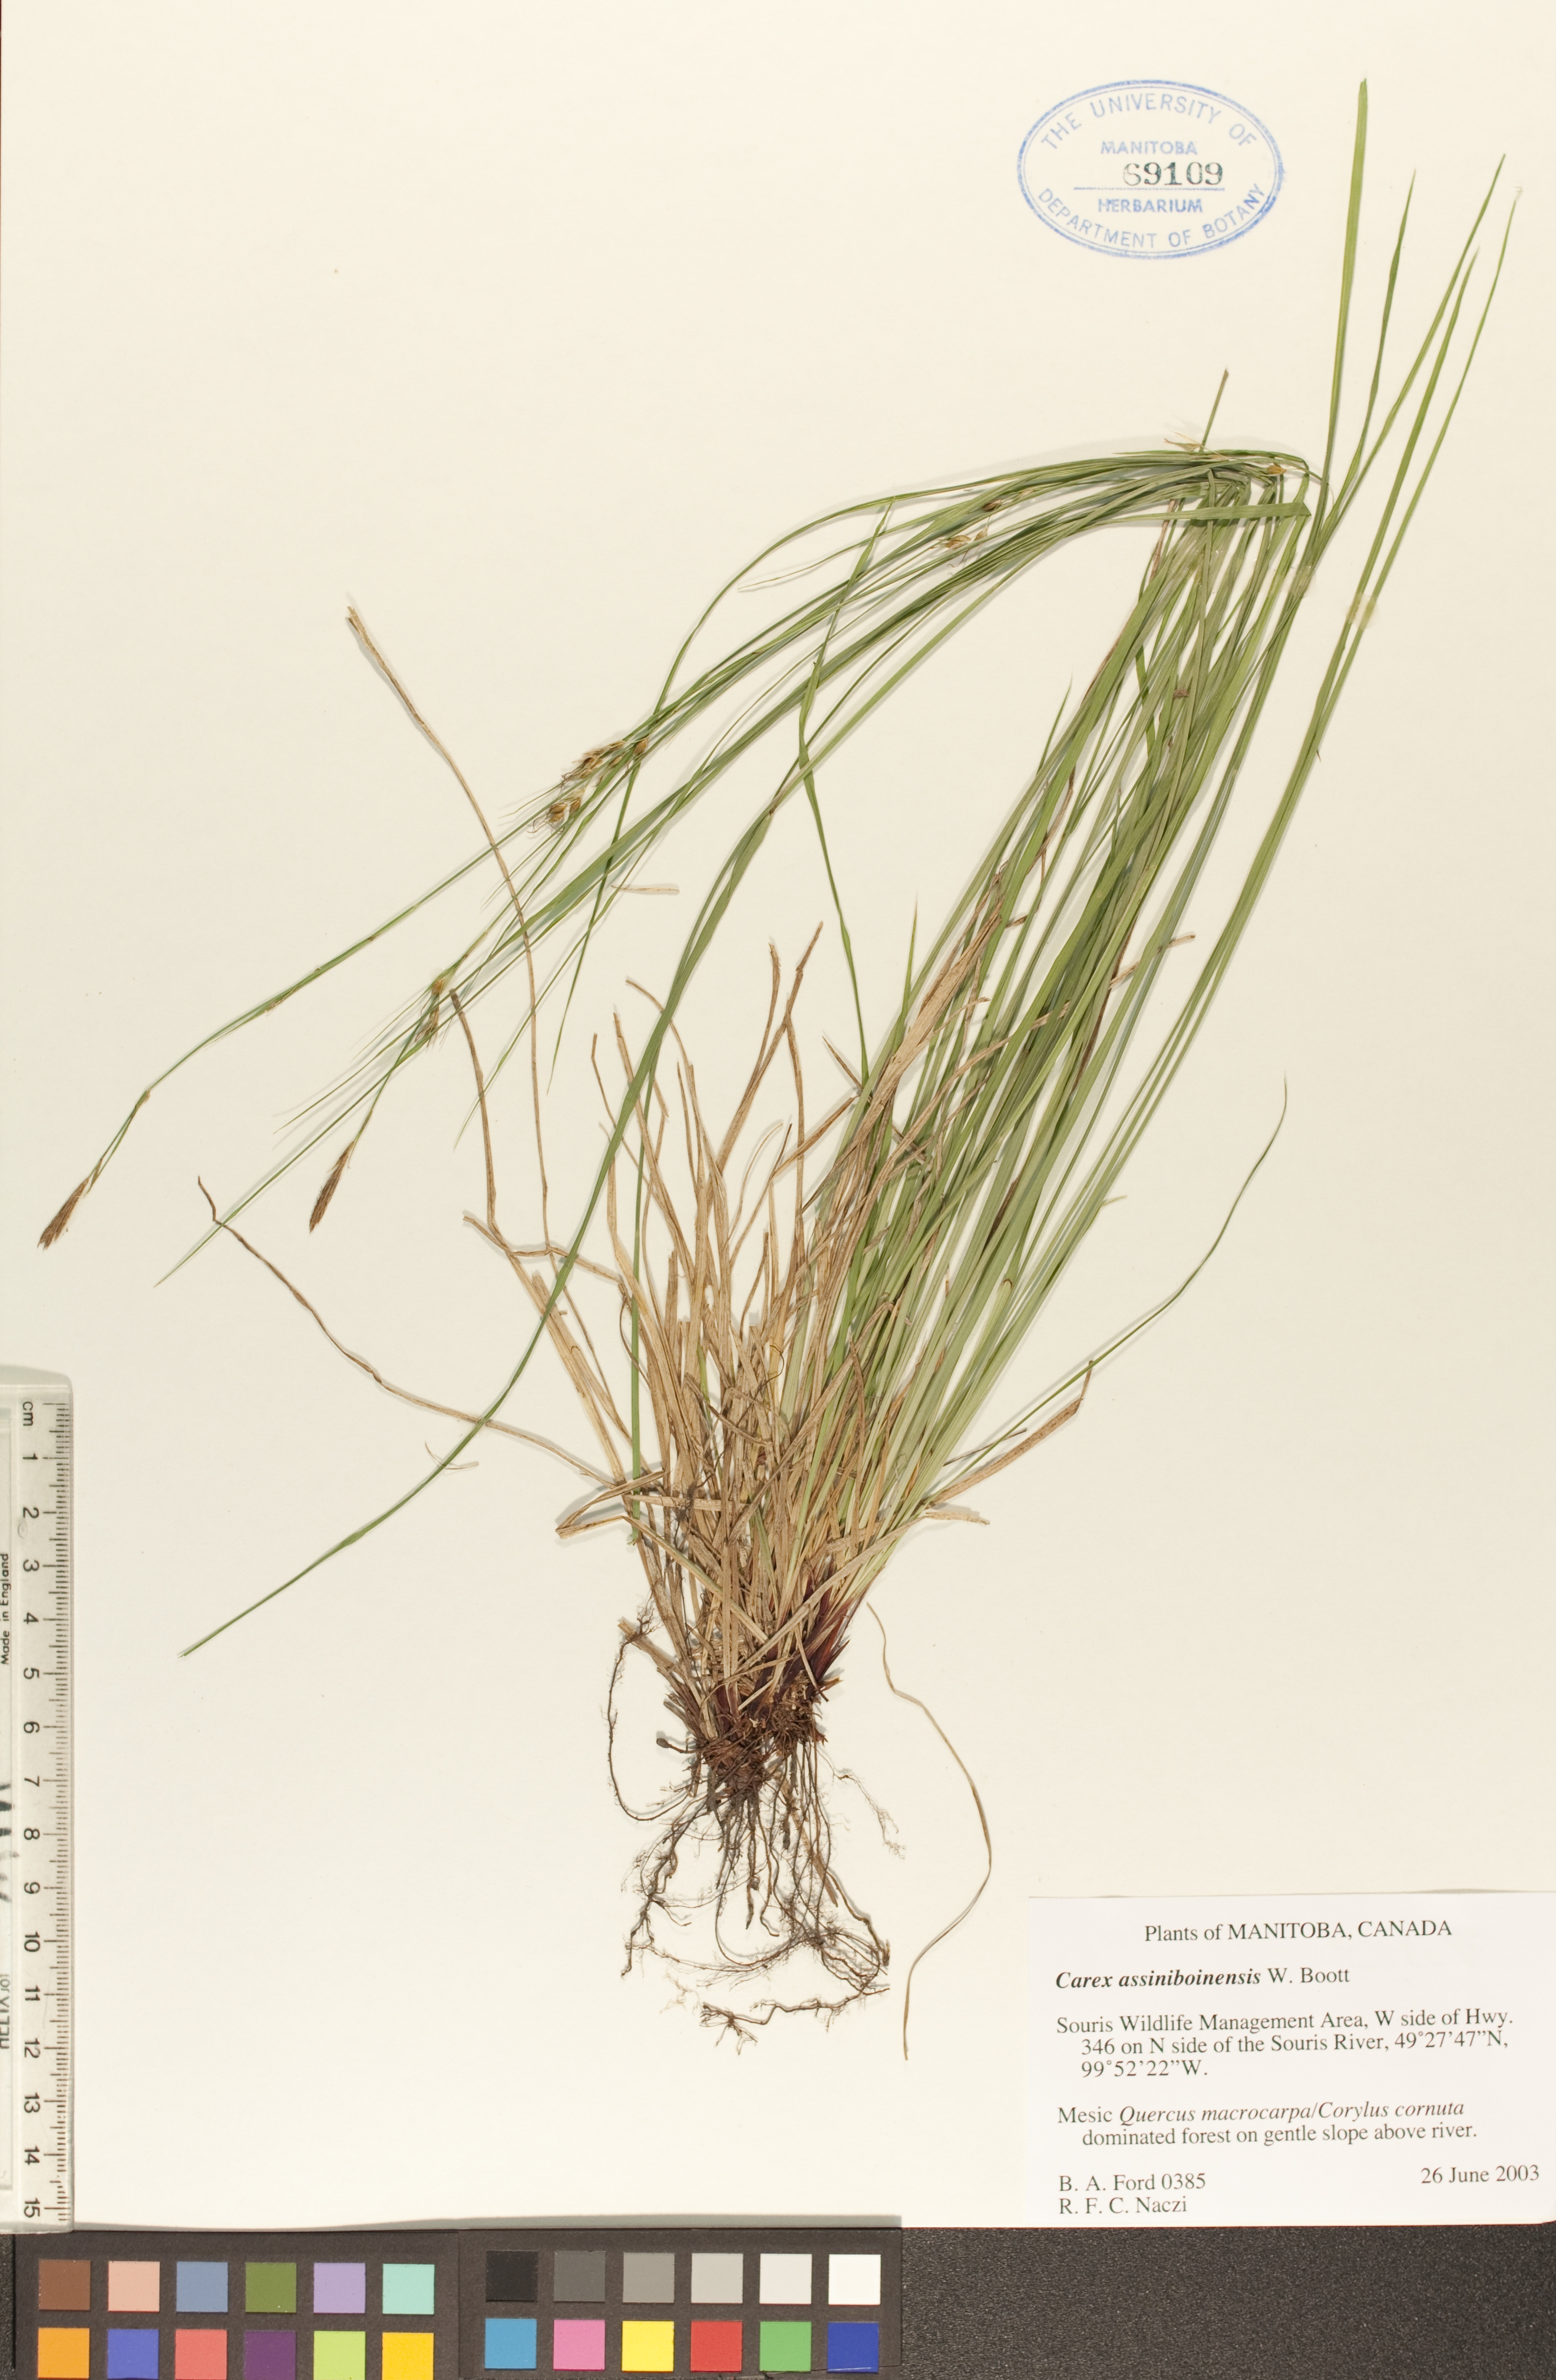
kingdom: Plantae
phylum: Tracheophyta
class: Liliopsida
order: Poales
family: Cyperaceae
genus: Carex
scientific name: Carex assiniboinensis
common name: Assiniboia sedge
